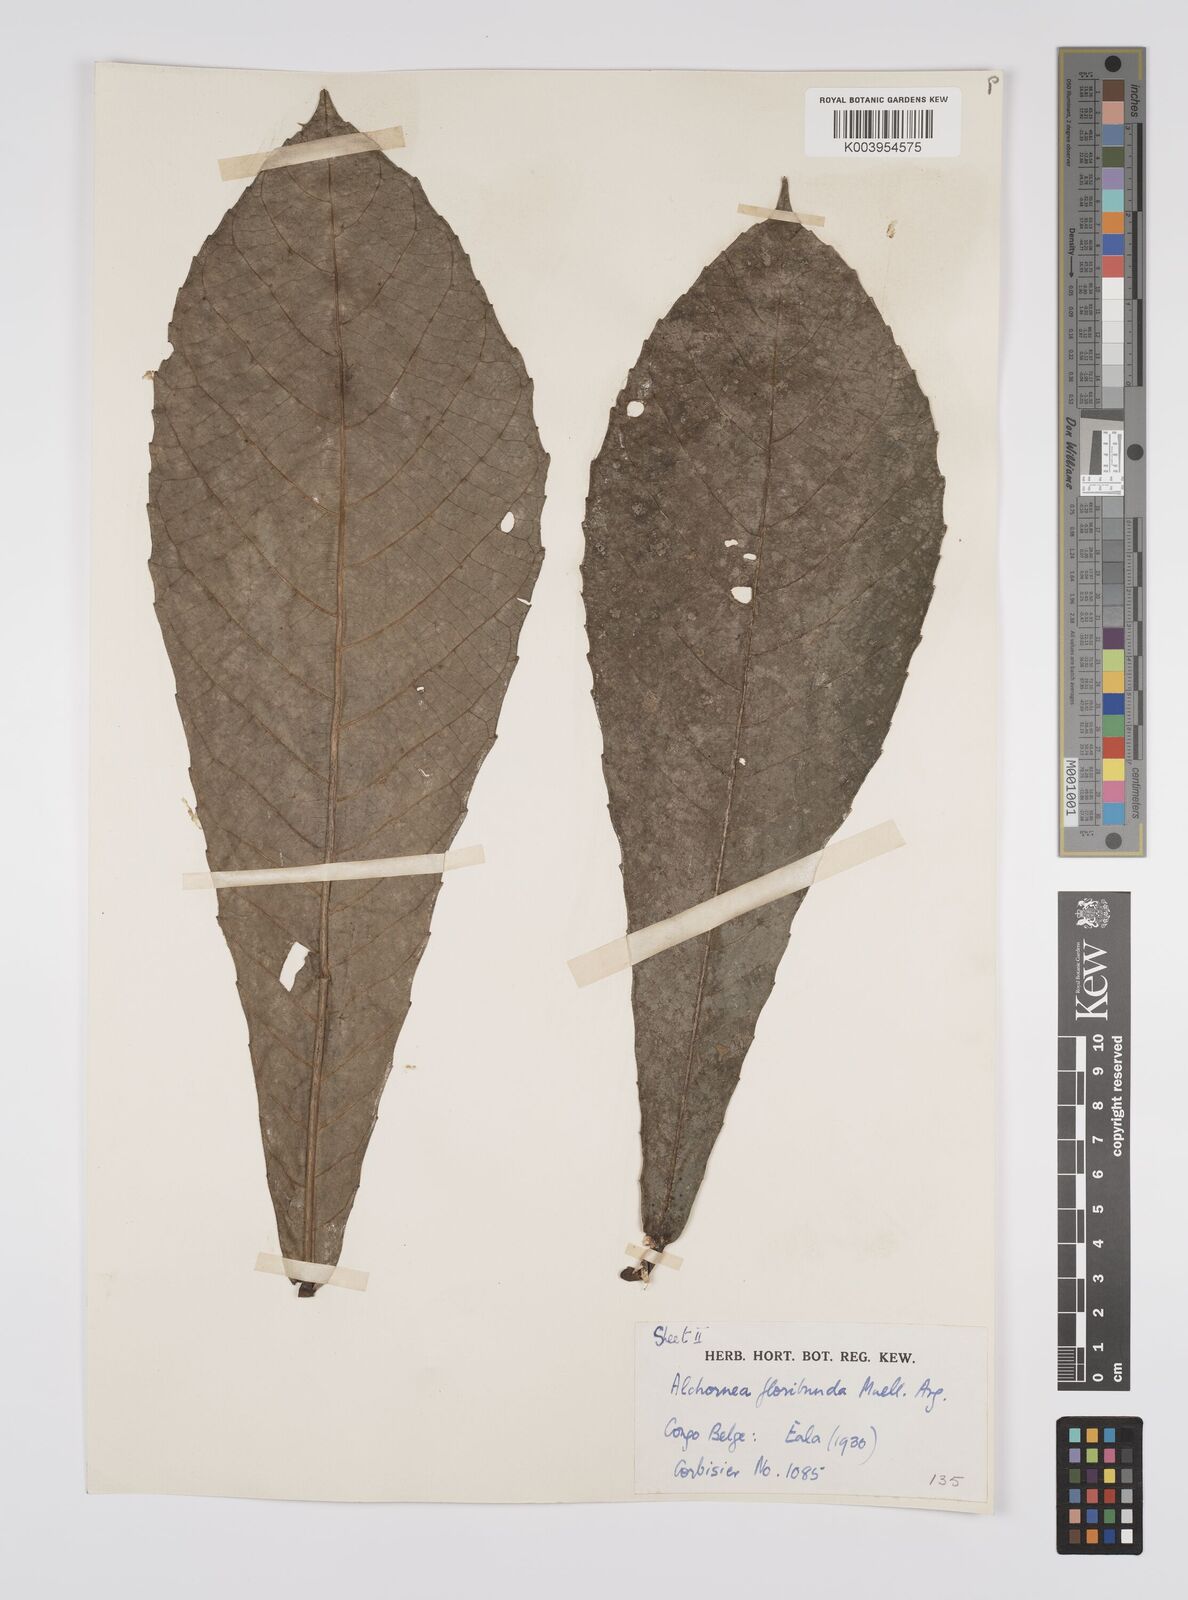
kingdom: Plantae
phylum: Tracheophyta
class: Magnoliopsida
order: Malpighiales
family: Euphorbiaceae
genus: Alchornea
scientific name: Alchornea floribunda
